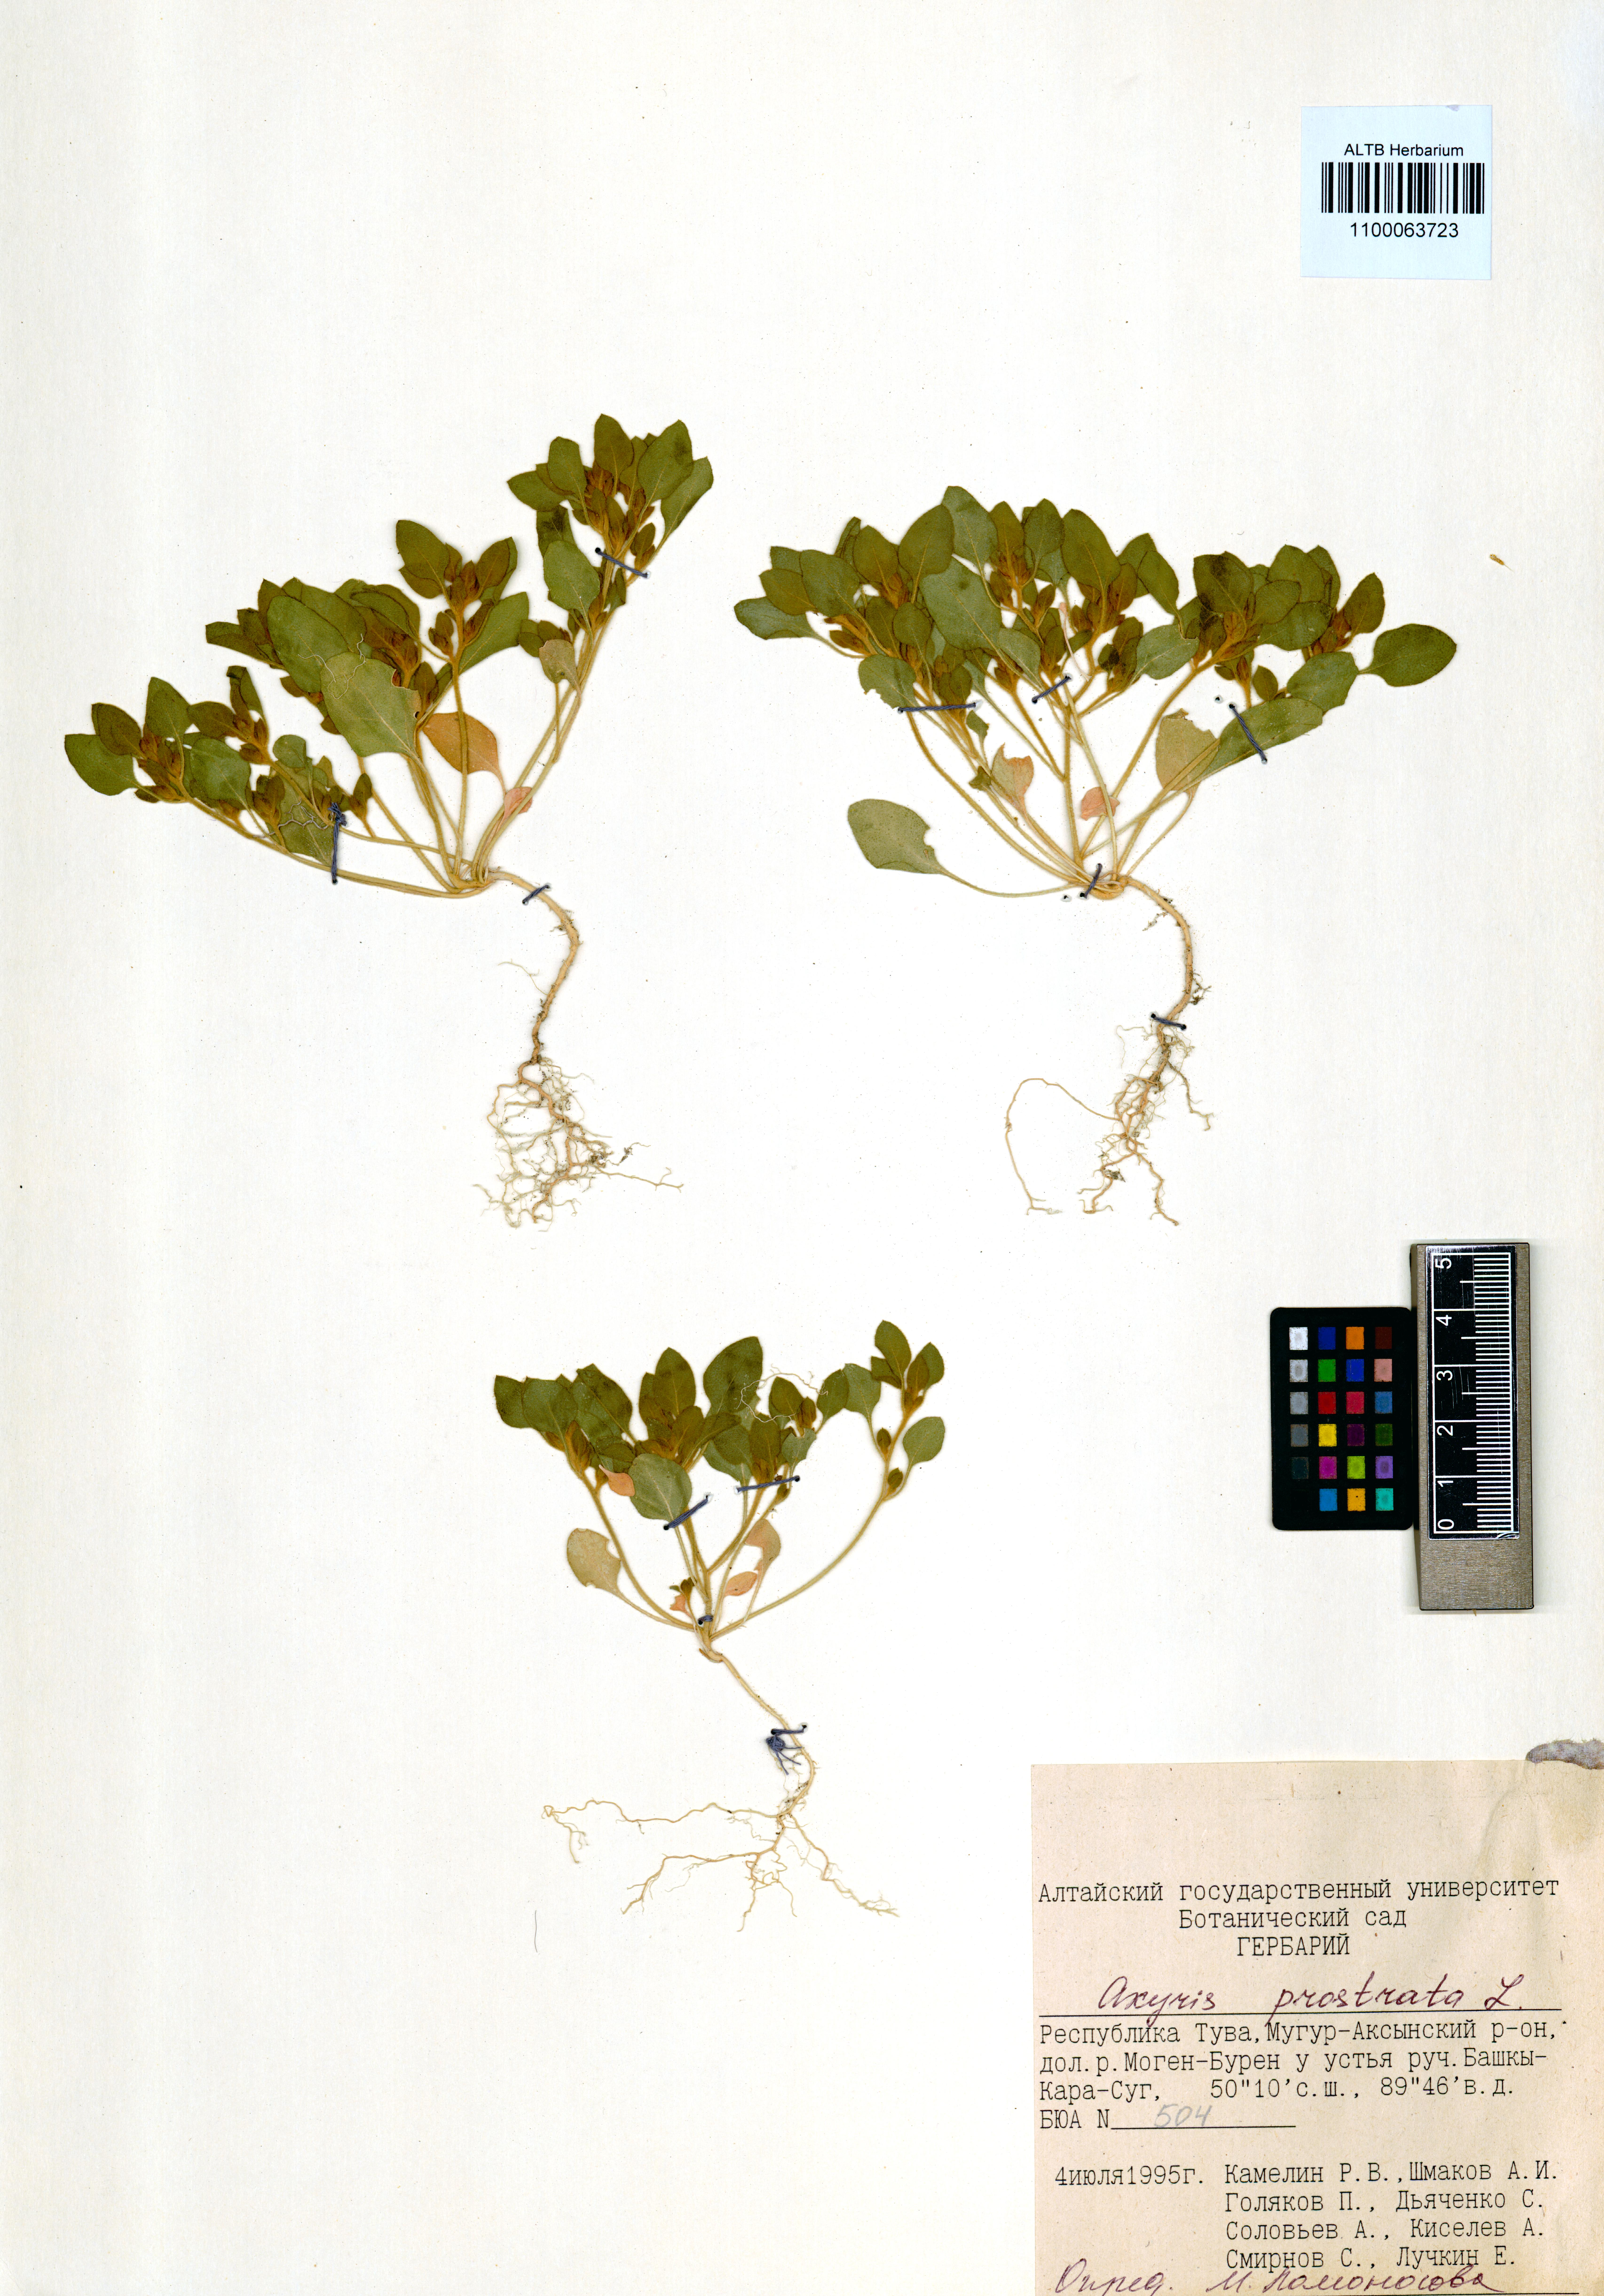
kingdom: Plantae
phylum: Tracheophyta
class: Magnoliopsida
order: Caryophyllales
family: Amaranthaceae
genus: Axyris
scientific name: Axyris prostrata
